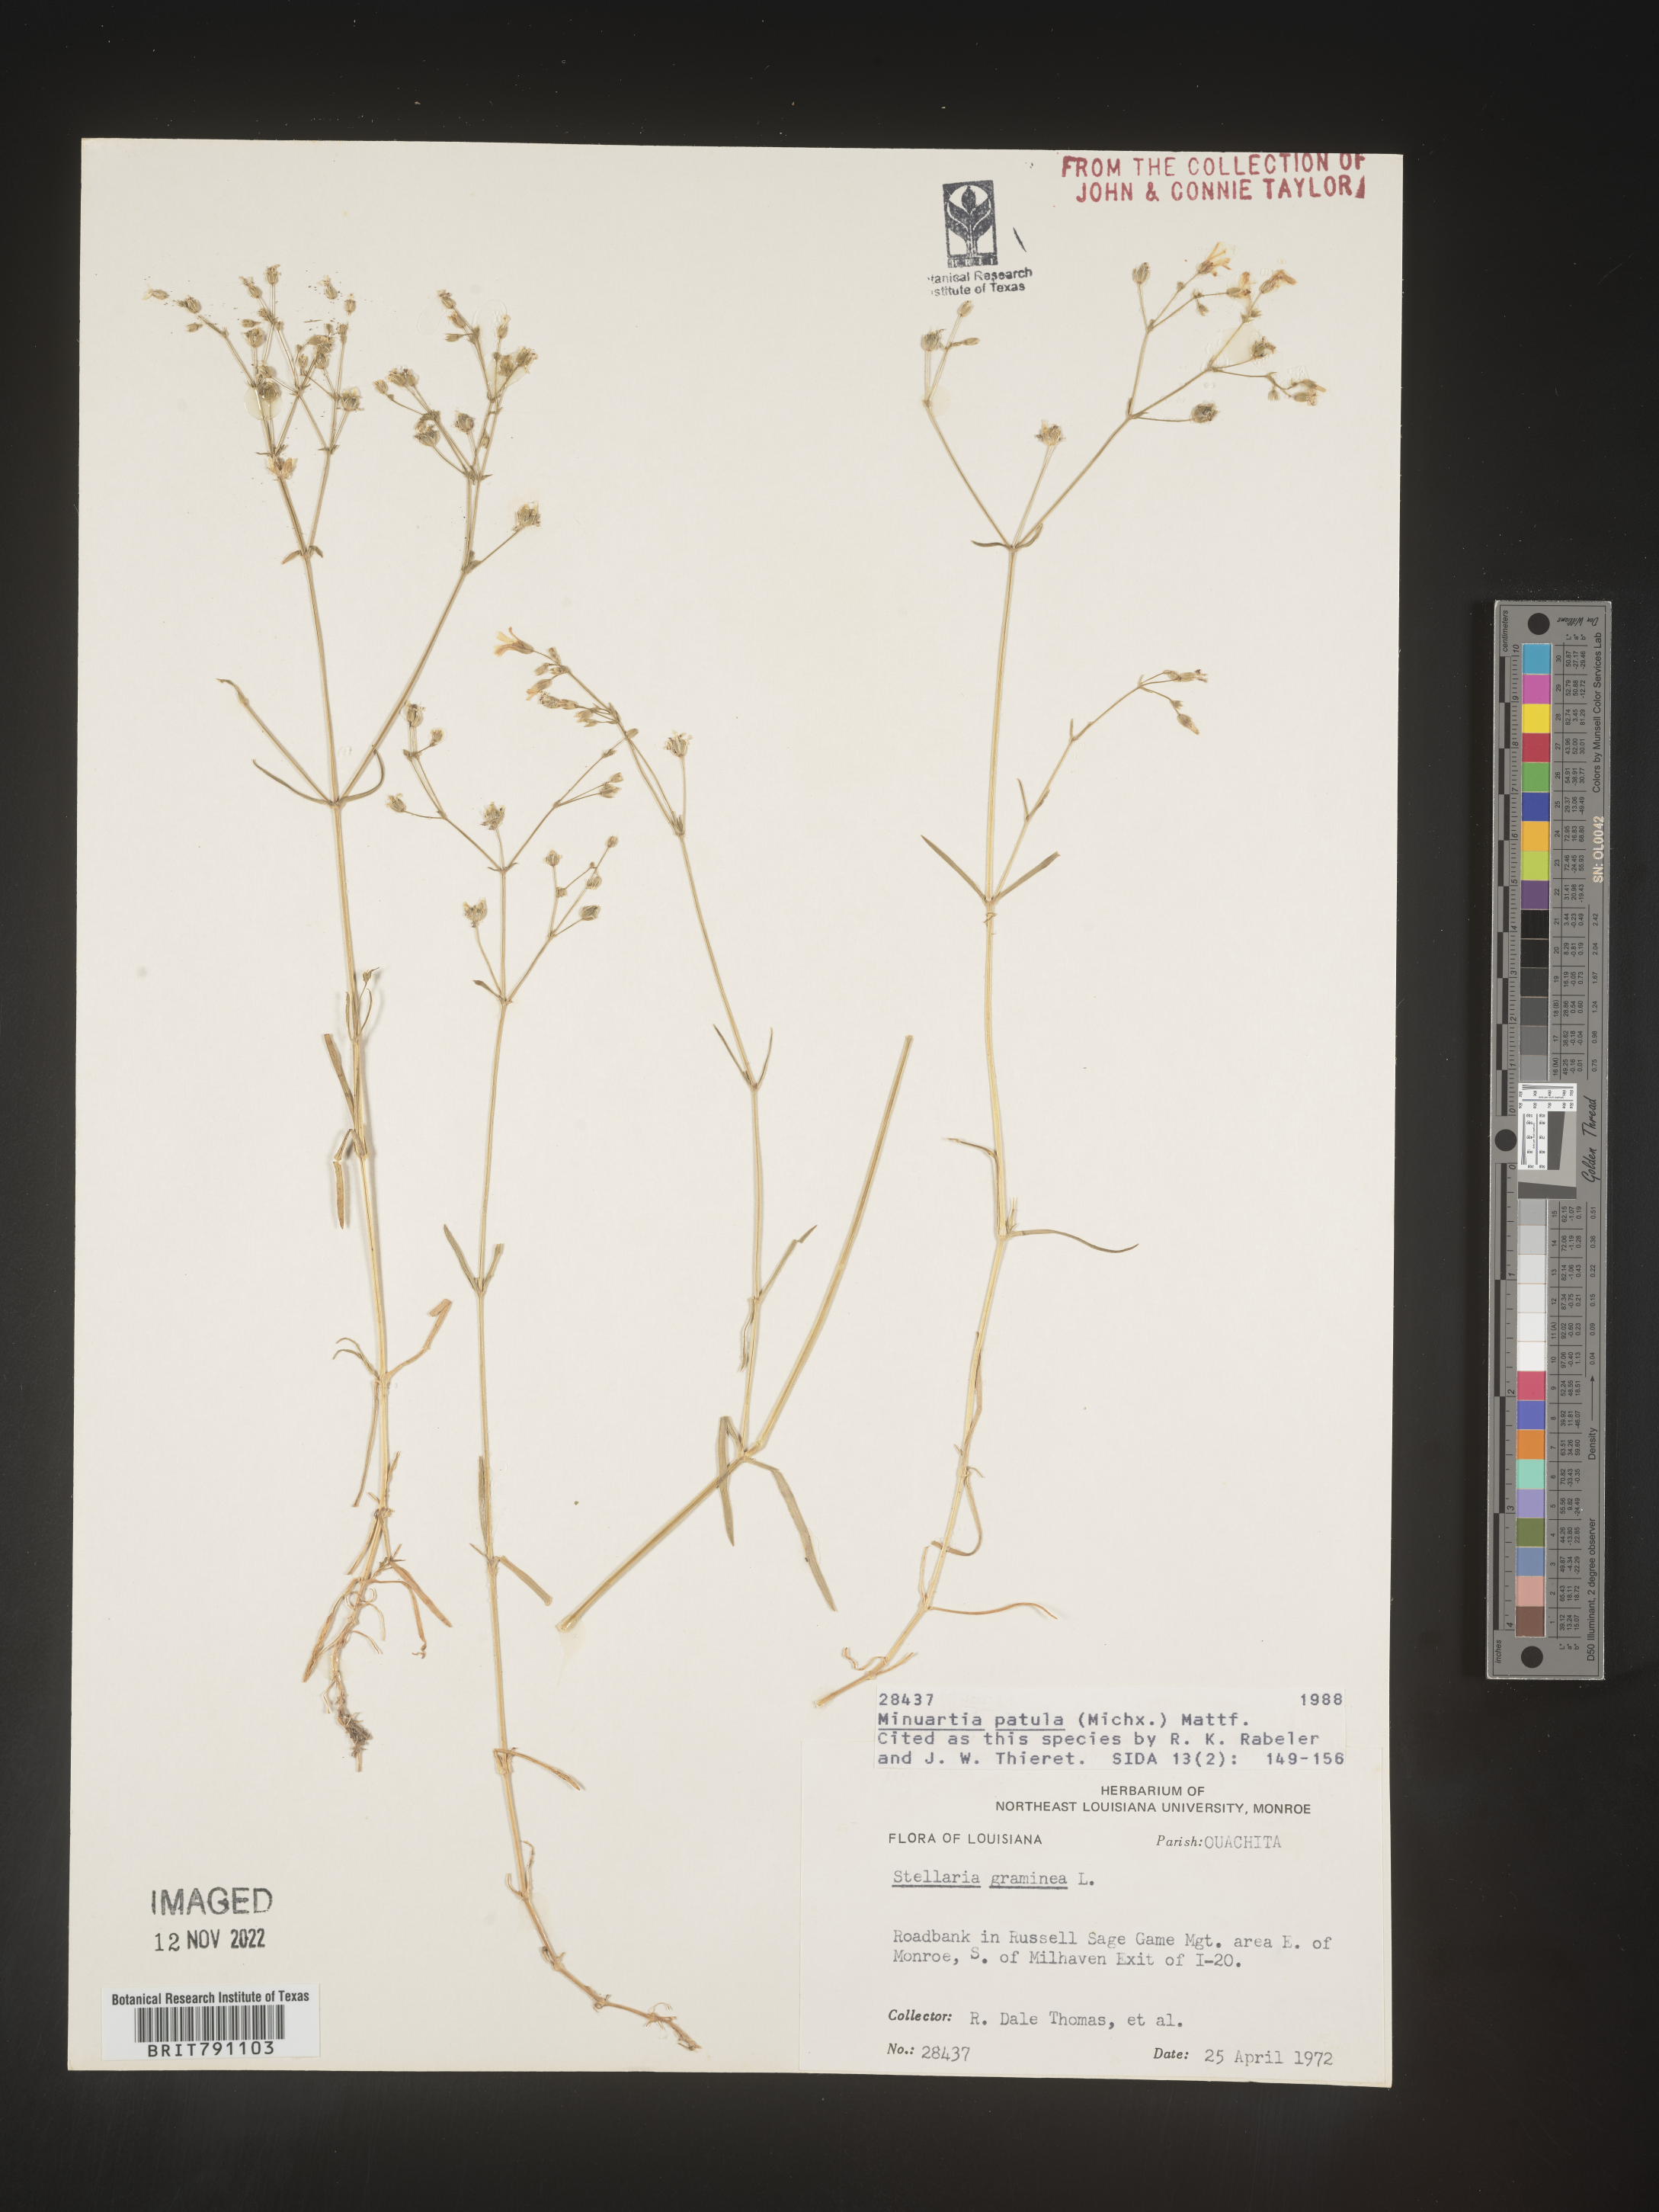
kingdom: Plantae
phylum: Tracheophyta
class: Magnoliopsida
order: Caryophyllales
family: Caryophyllaceae
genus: Mononeuria
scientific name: Mononeuria patula
